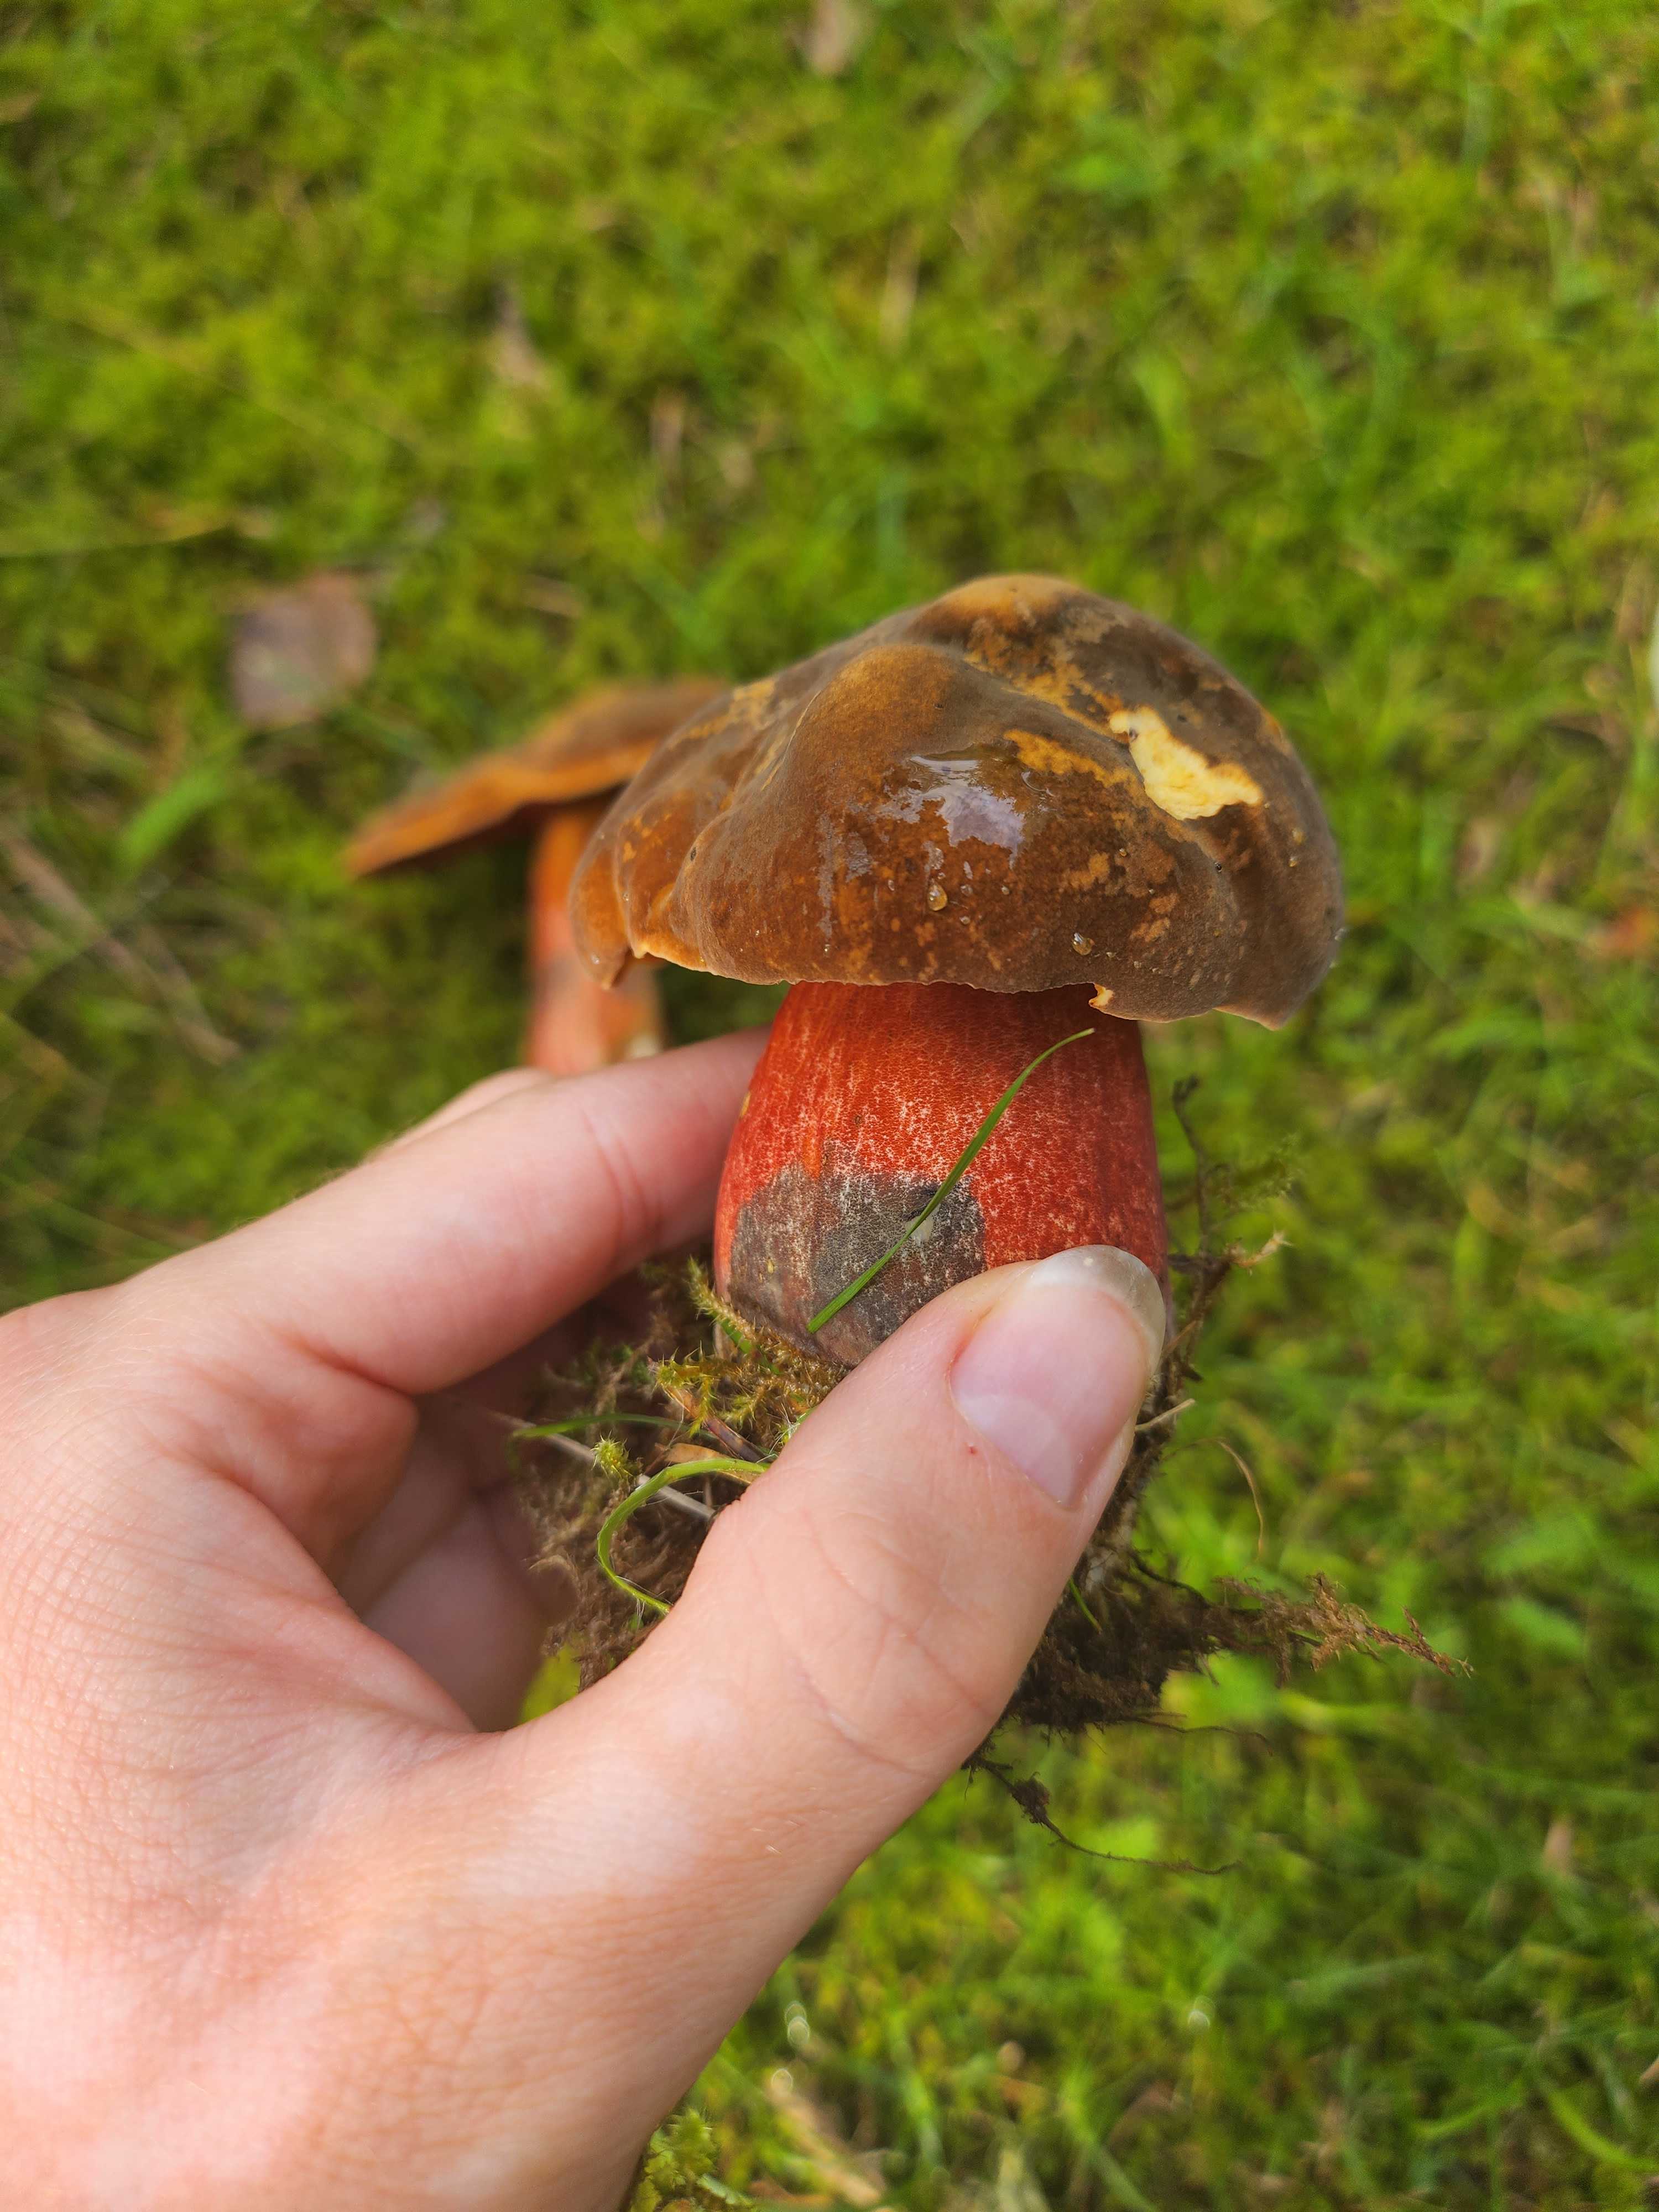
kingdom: Fungi
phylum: Basidiomycota
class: Agaricomycetes
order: Boletales
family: Boletaceae
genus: Neoboletus
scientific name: Neoboletus erythropus
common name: punktstokket indigorørhat
